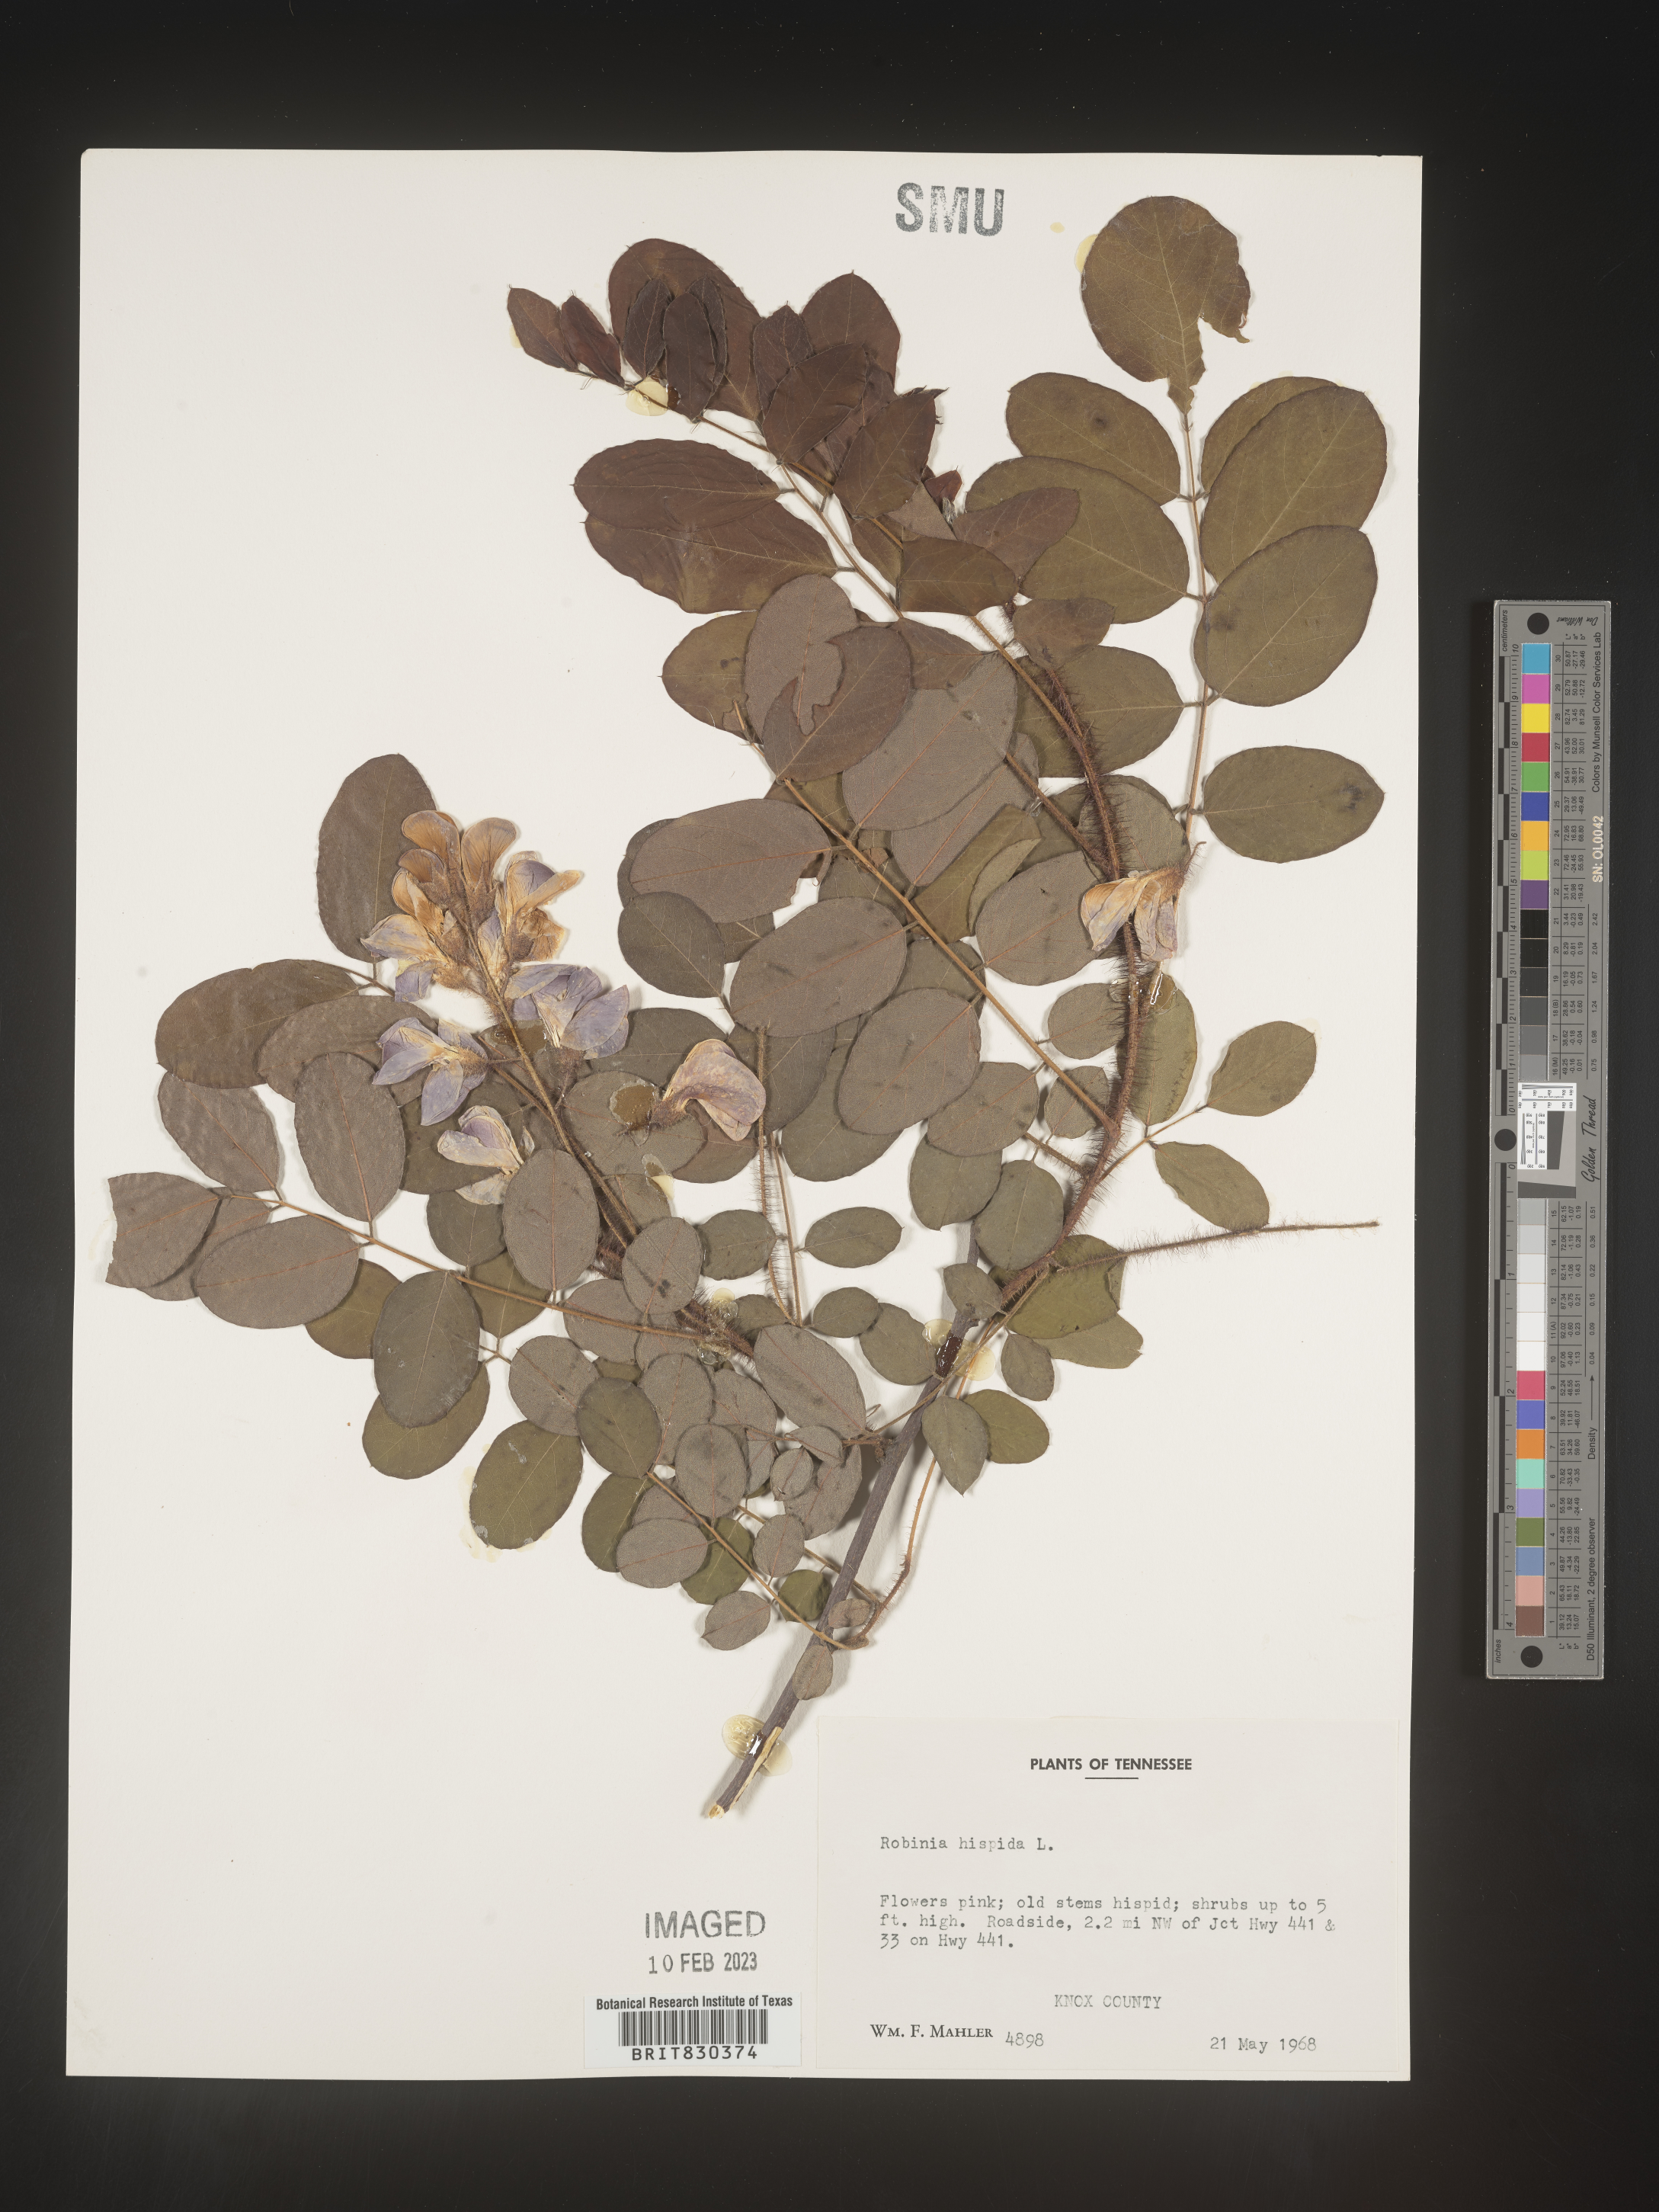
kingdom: Plantae
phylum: Tracheophyta
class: Magnoliopsida
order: Fabales
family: Fabaceae
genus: Robinia
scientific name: Robinia hispida
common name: Bristly locust
